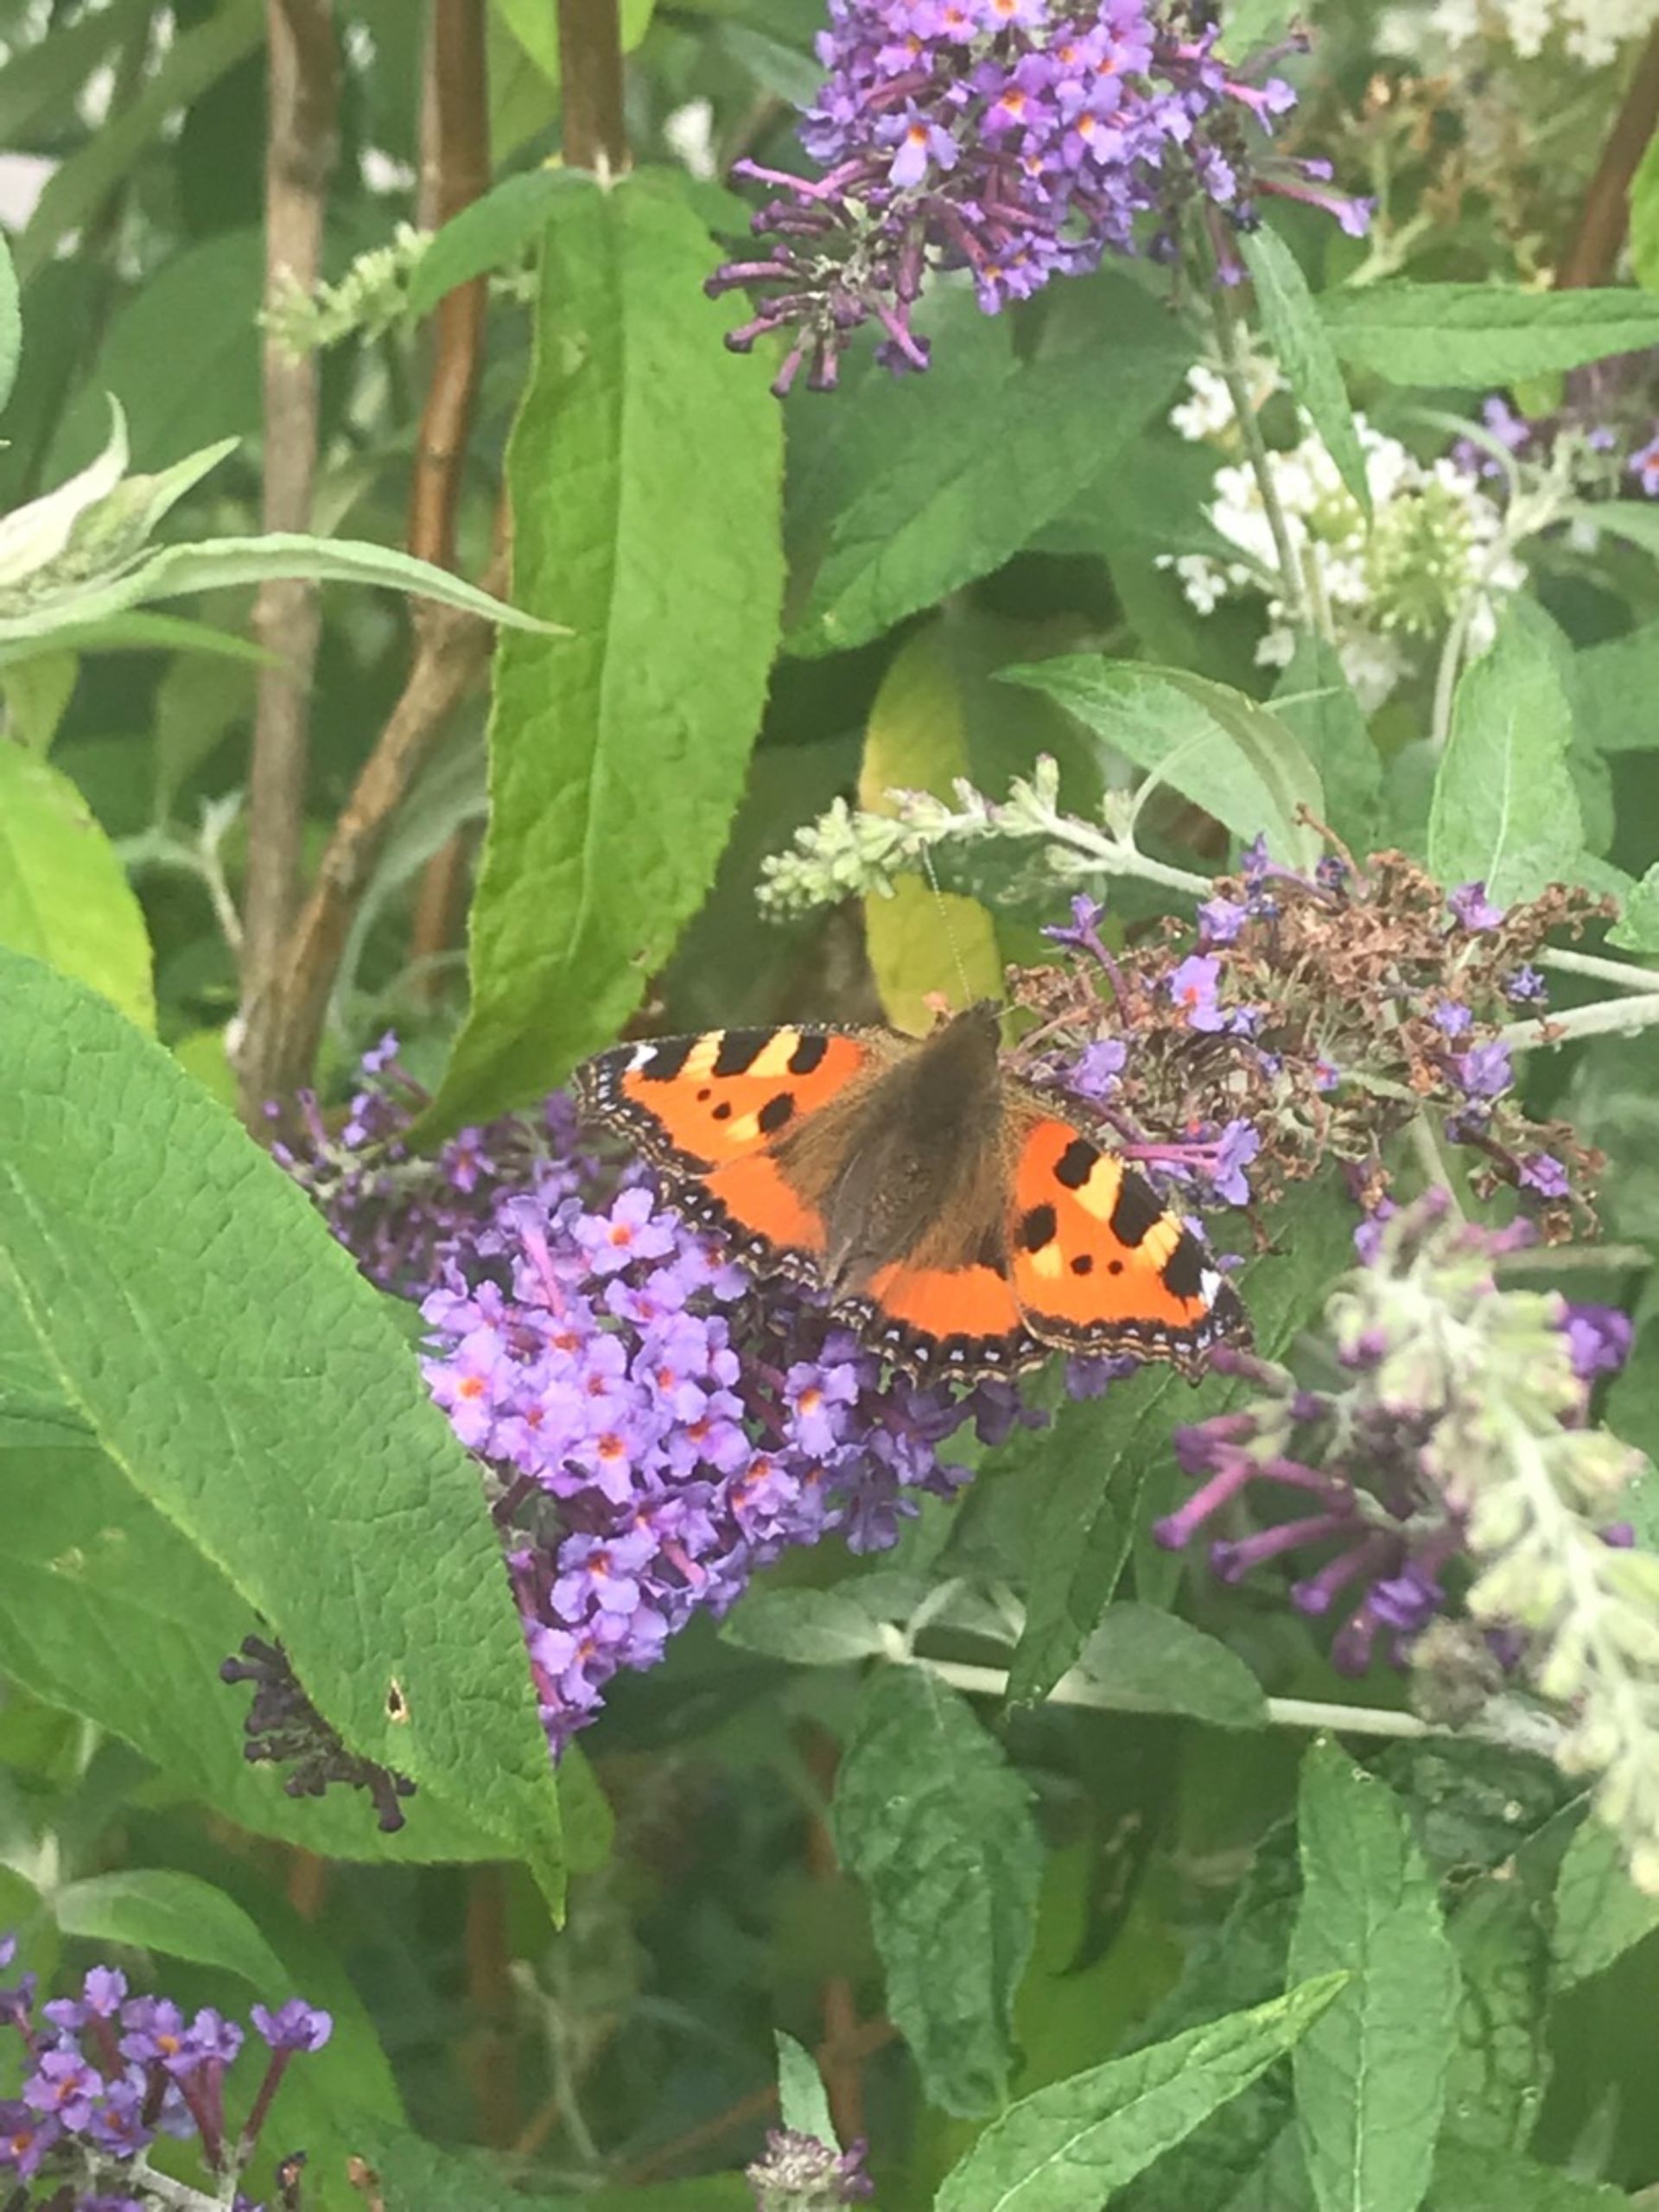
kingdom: Animalia
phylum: Arthropoda
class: Insecta
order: Lepidoptera
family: Nymphalidae
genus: Aglais
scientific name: Aglais urticae
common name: Nældens takvinge
